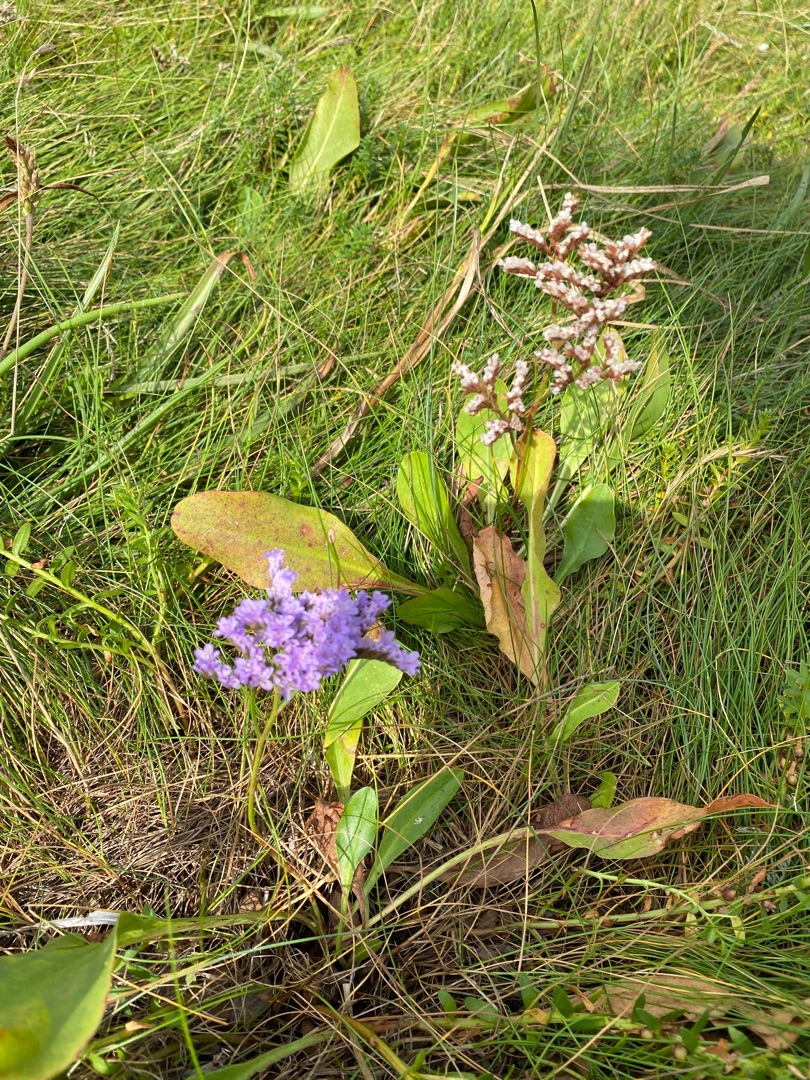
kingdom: Plantae
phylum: Tracheophyta
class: Magnoliopsida
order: Caryophyllales
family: Plumbaginaceae
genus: Limonium
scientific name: Limonium vulgare
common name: Tætblomstret hindebæger
